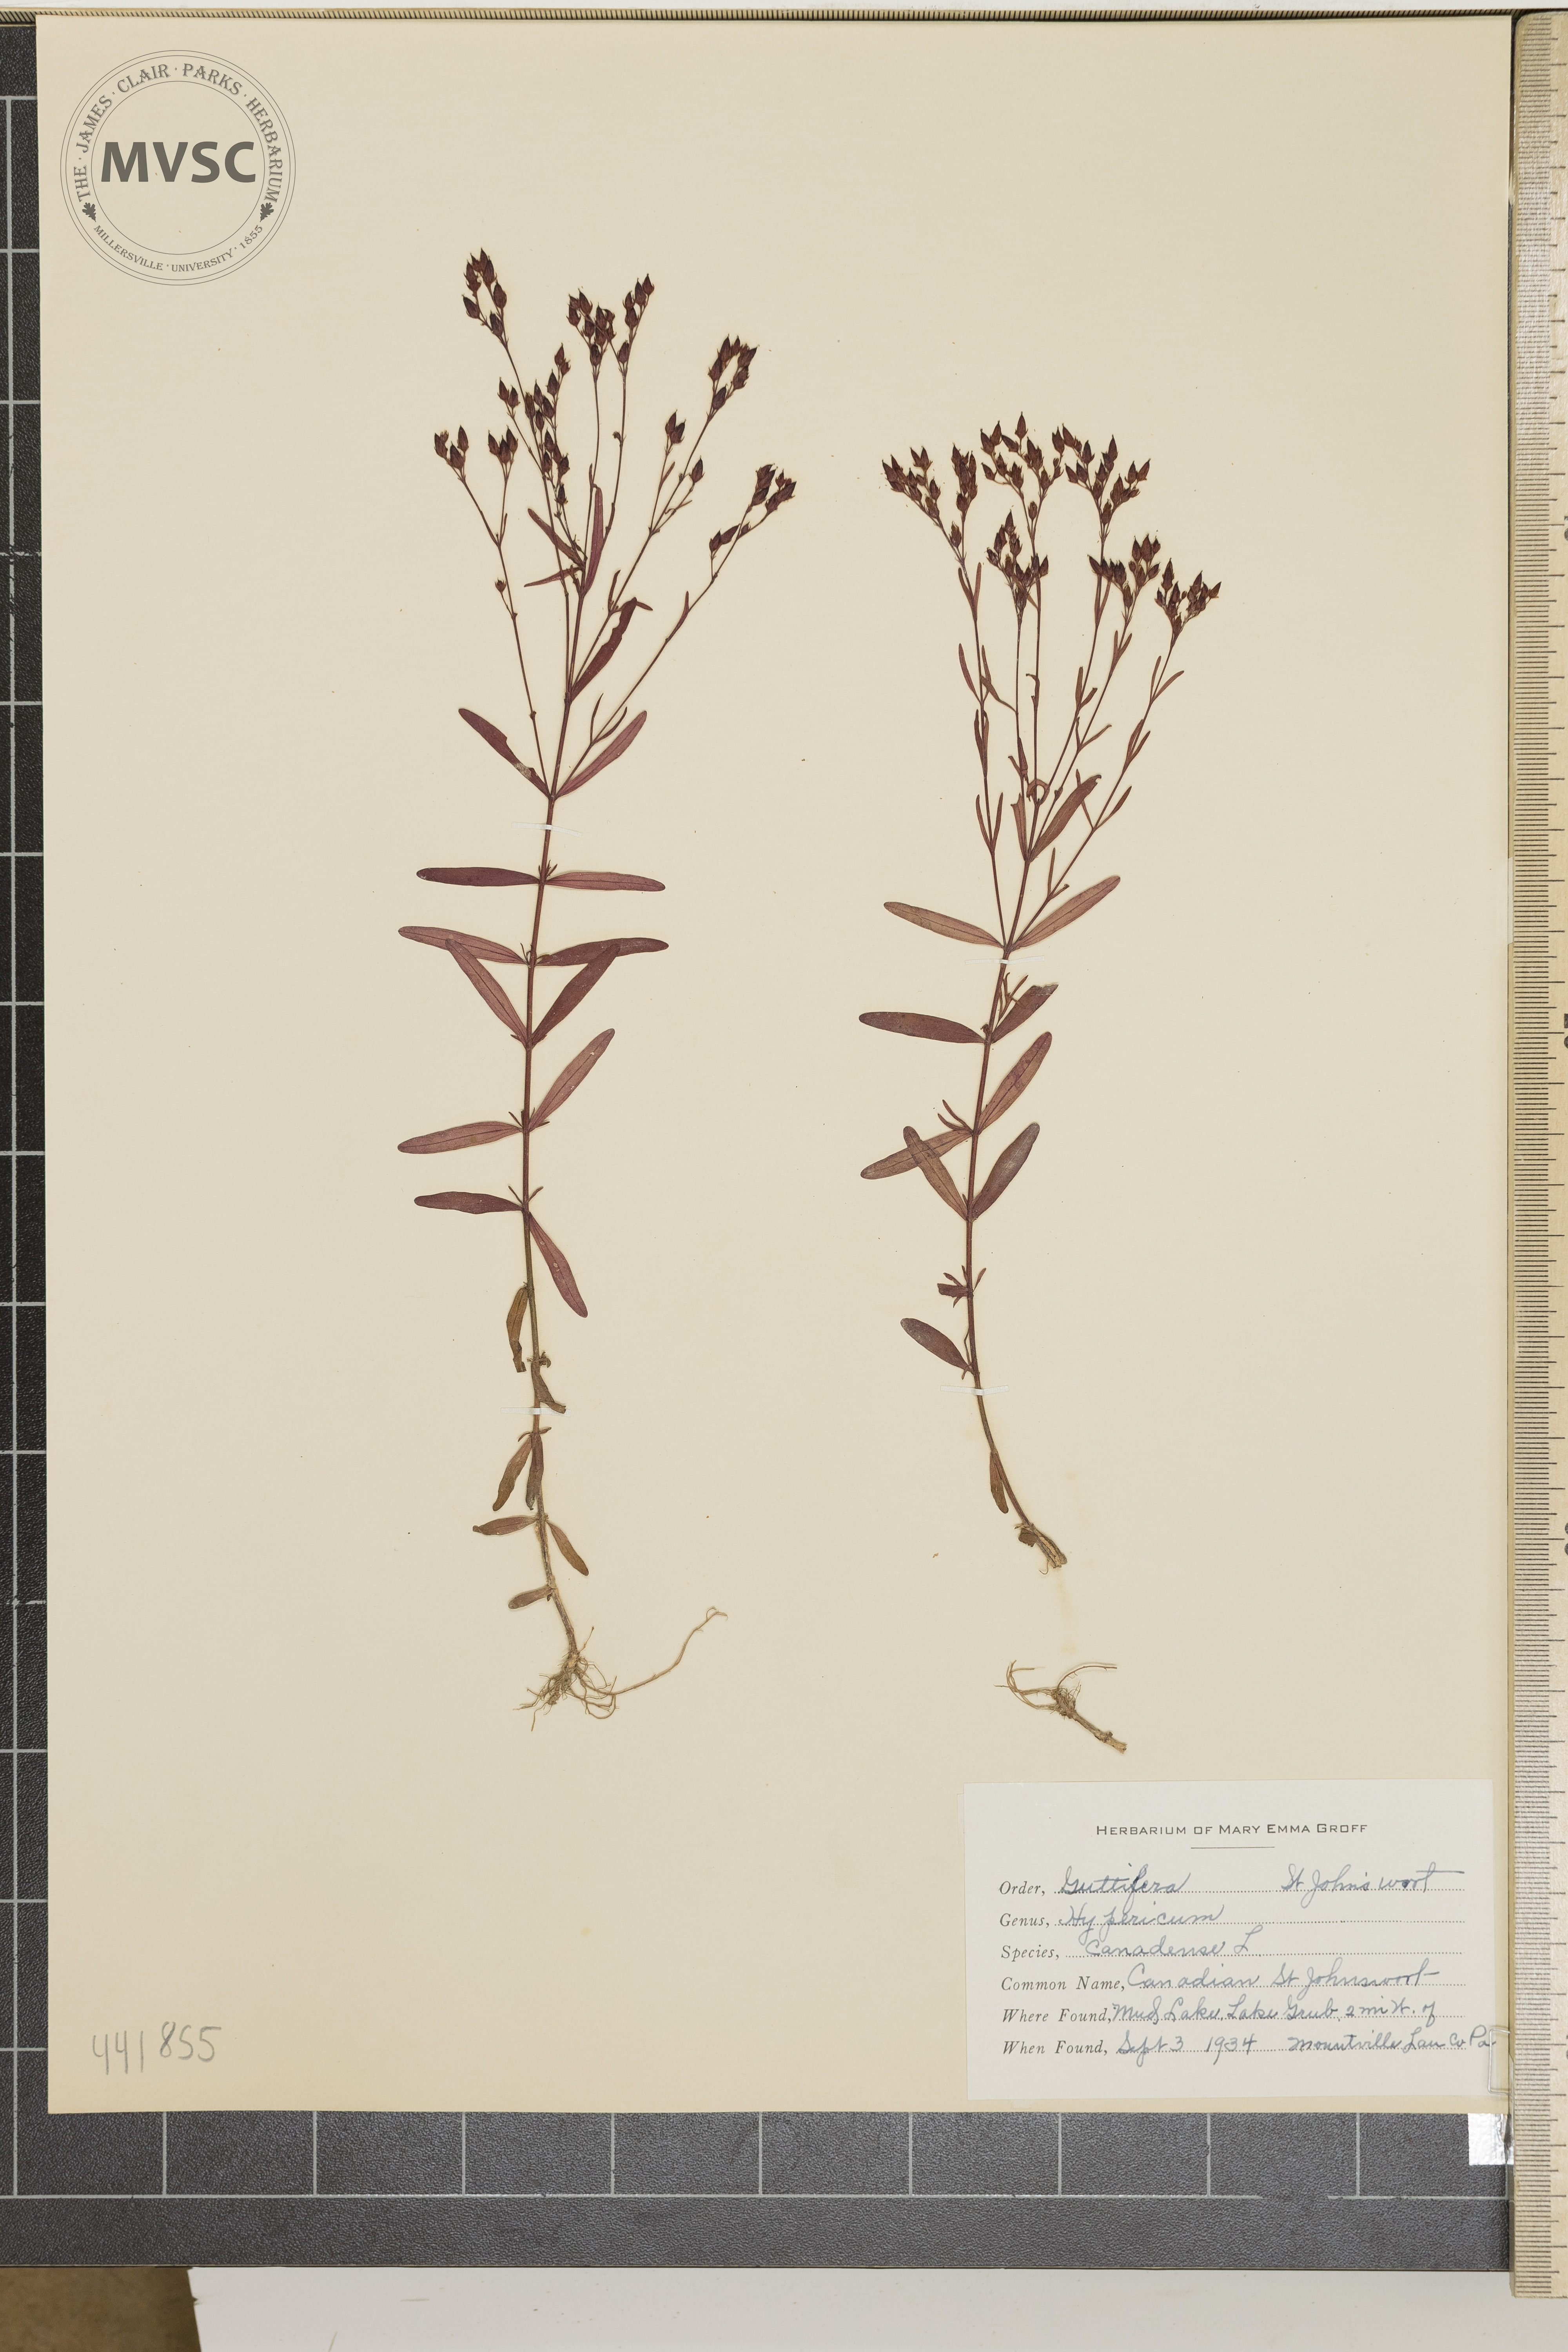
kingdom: Plantae
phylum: Tracheophyta
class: Magnoliopsida
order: Malpighiales
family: Hypericaceae
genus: Hypericum
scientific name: Hypericum canadense
